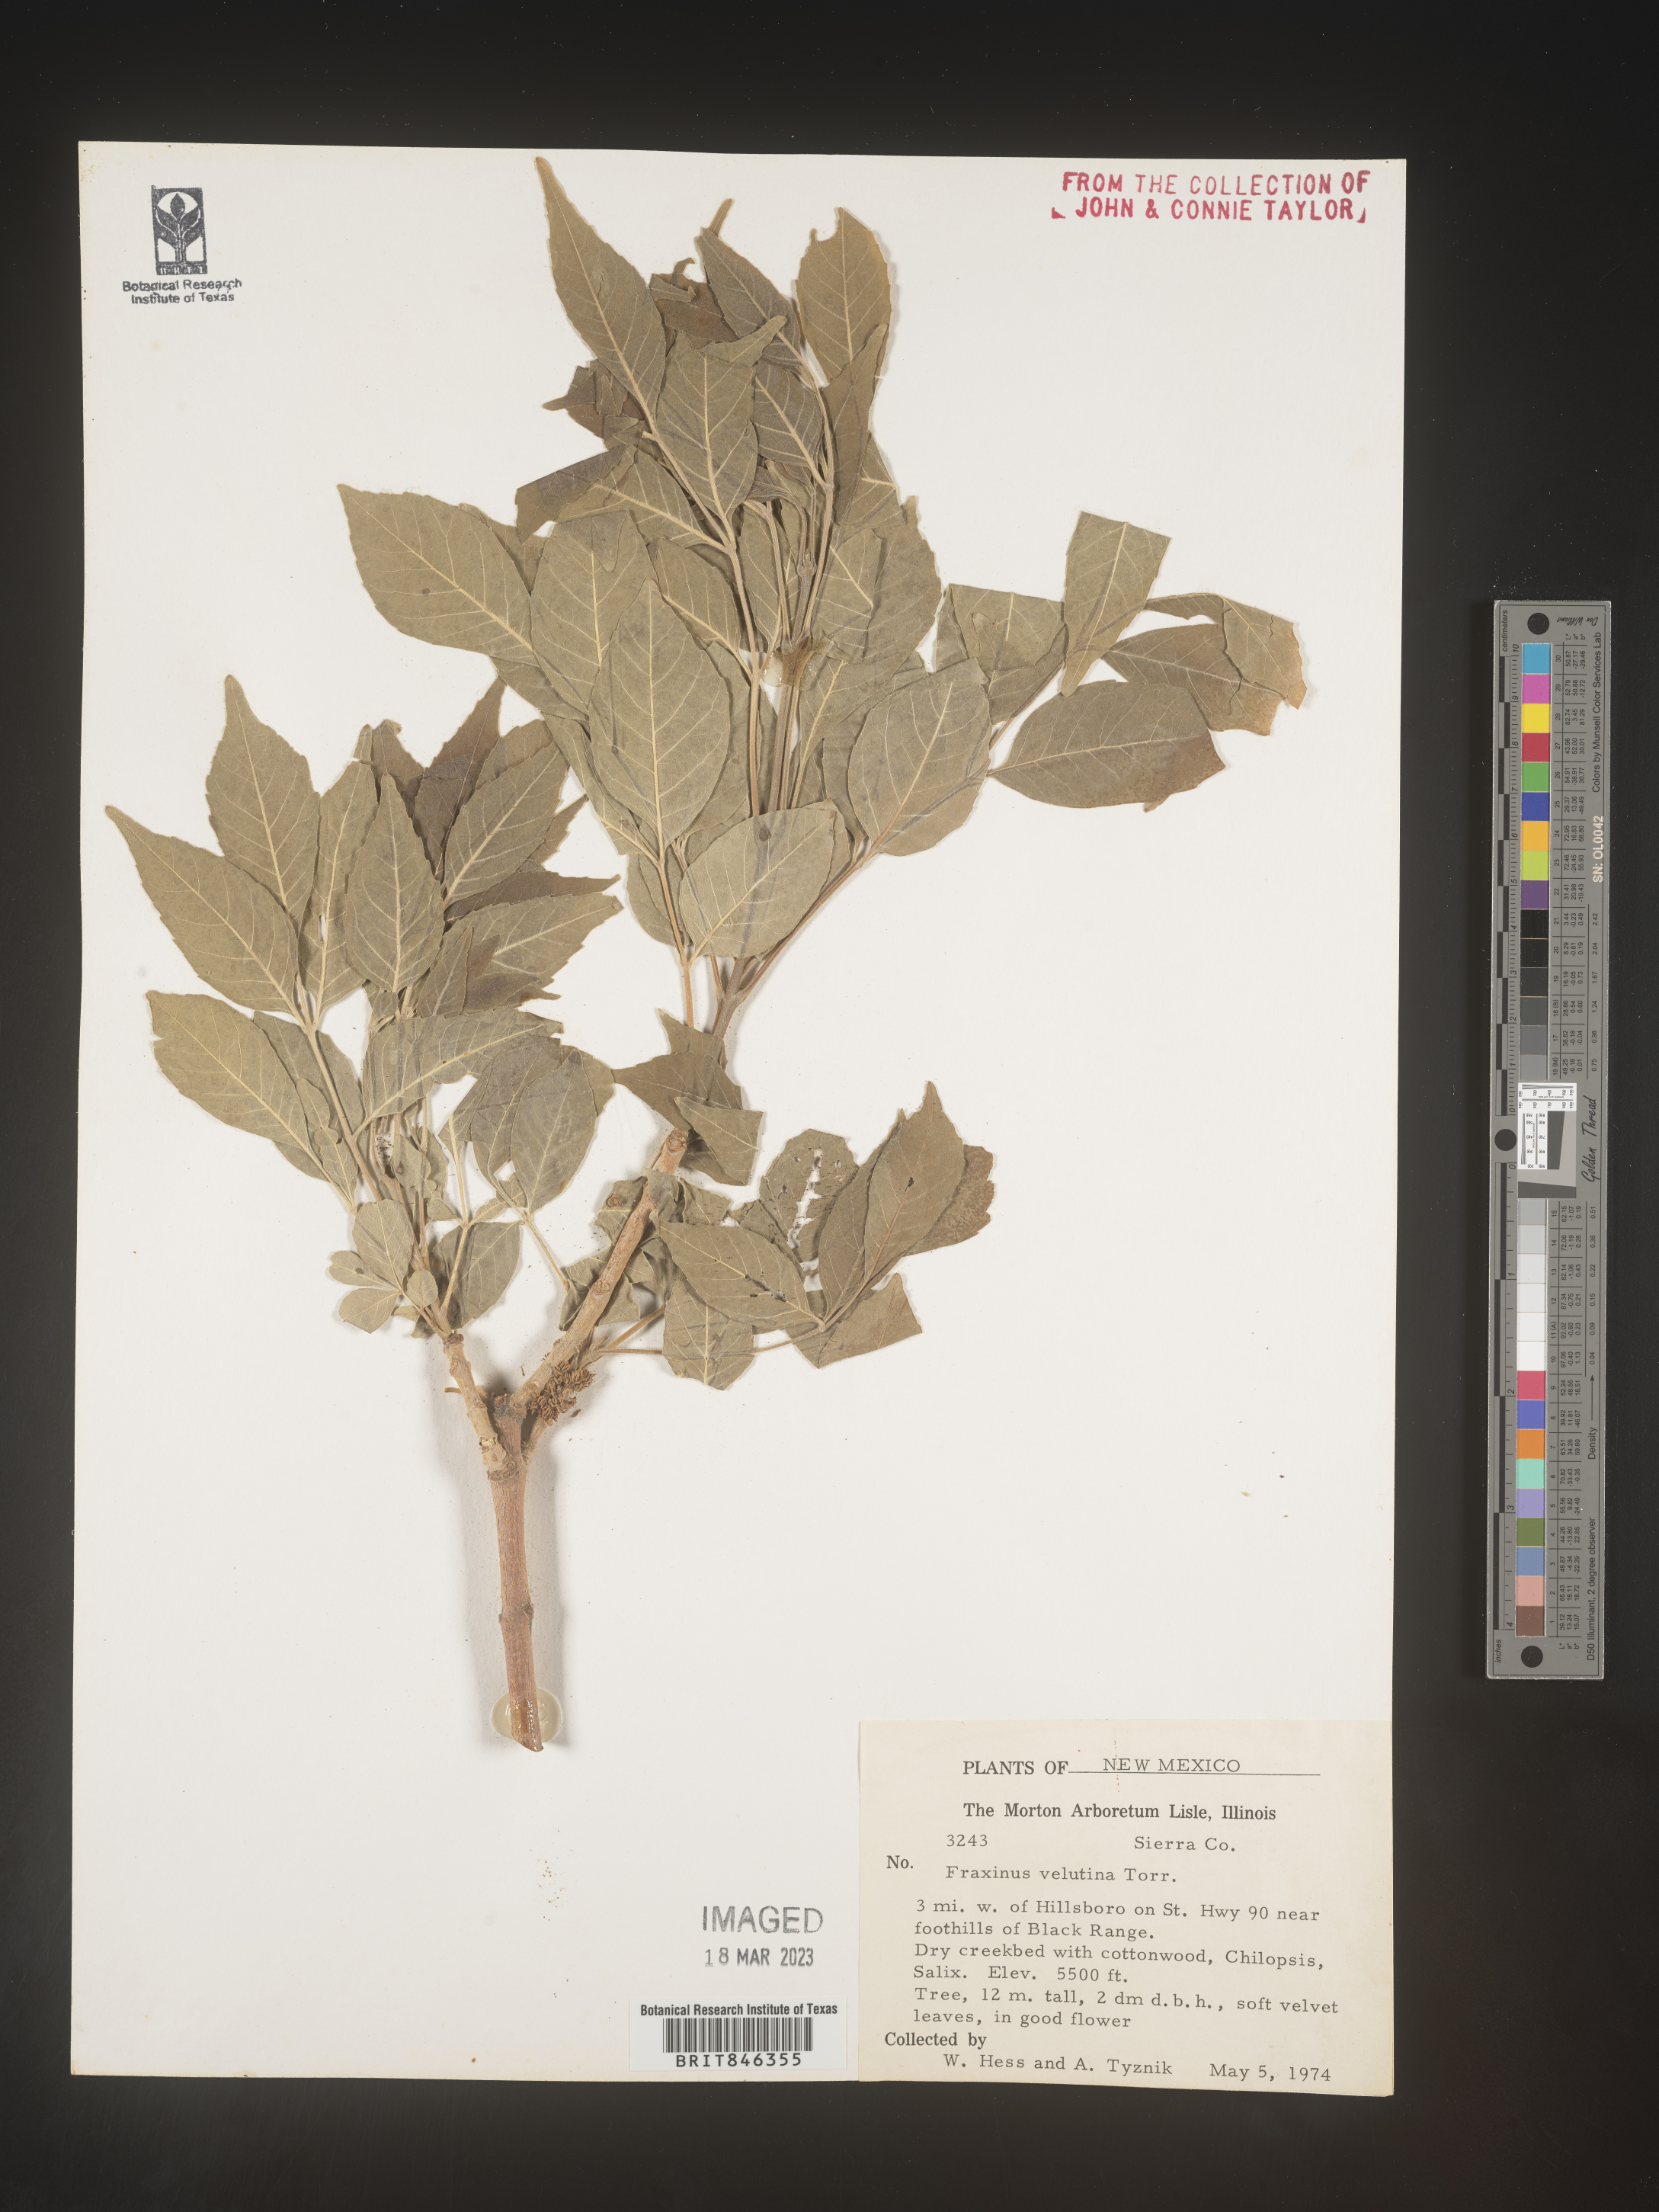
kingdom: Plantae
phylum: Tracheophyta
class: Magnoliopsida
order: Lamiales
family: Oleaceae
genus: Fraxinus
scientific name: Fraxinus velutina
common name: Arizon ash
